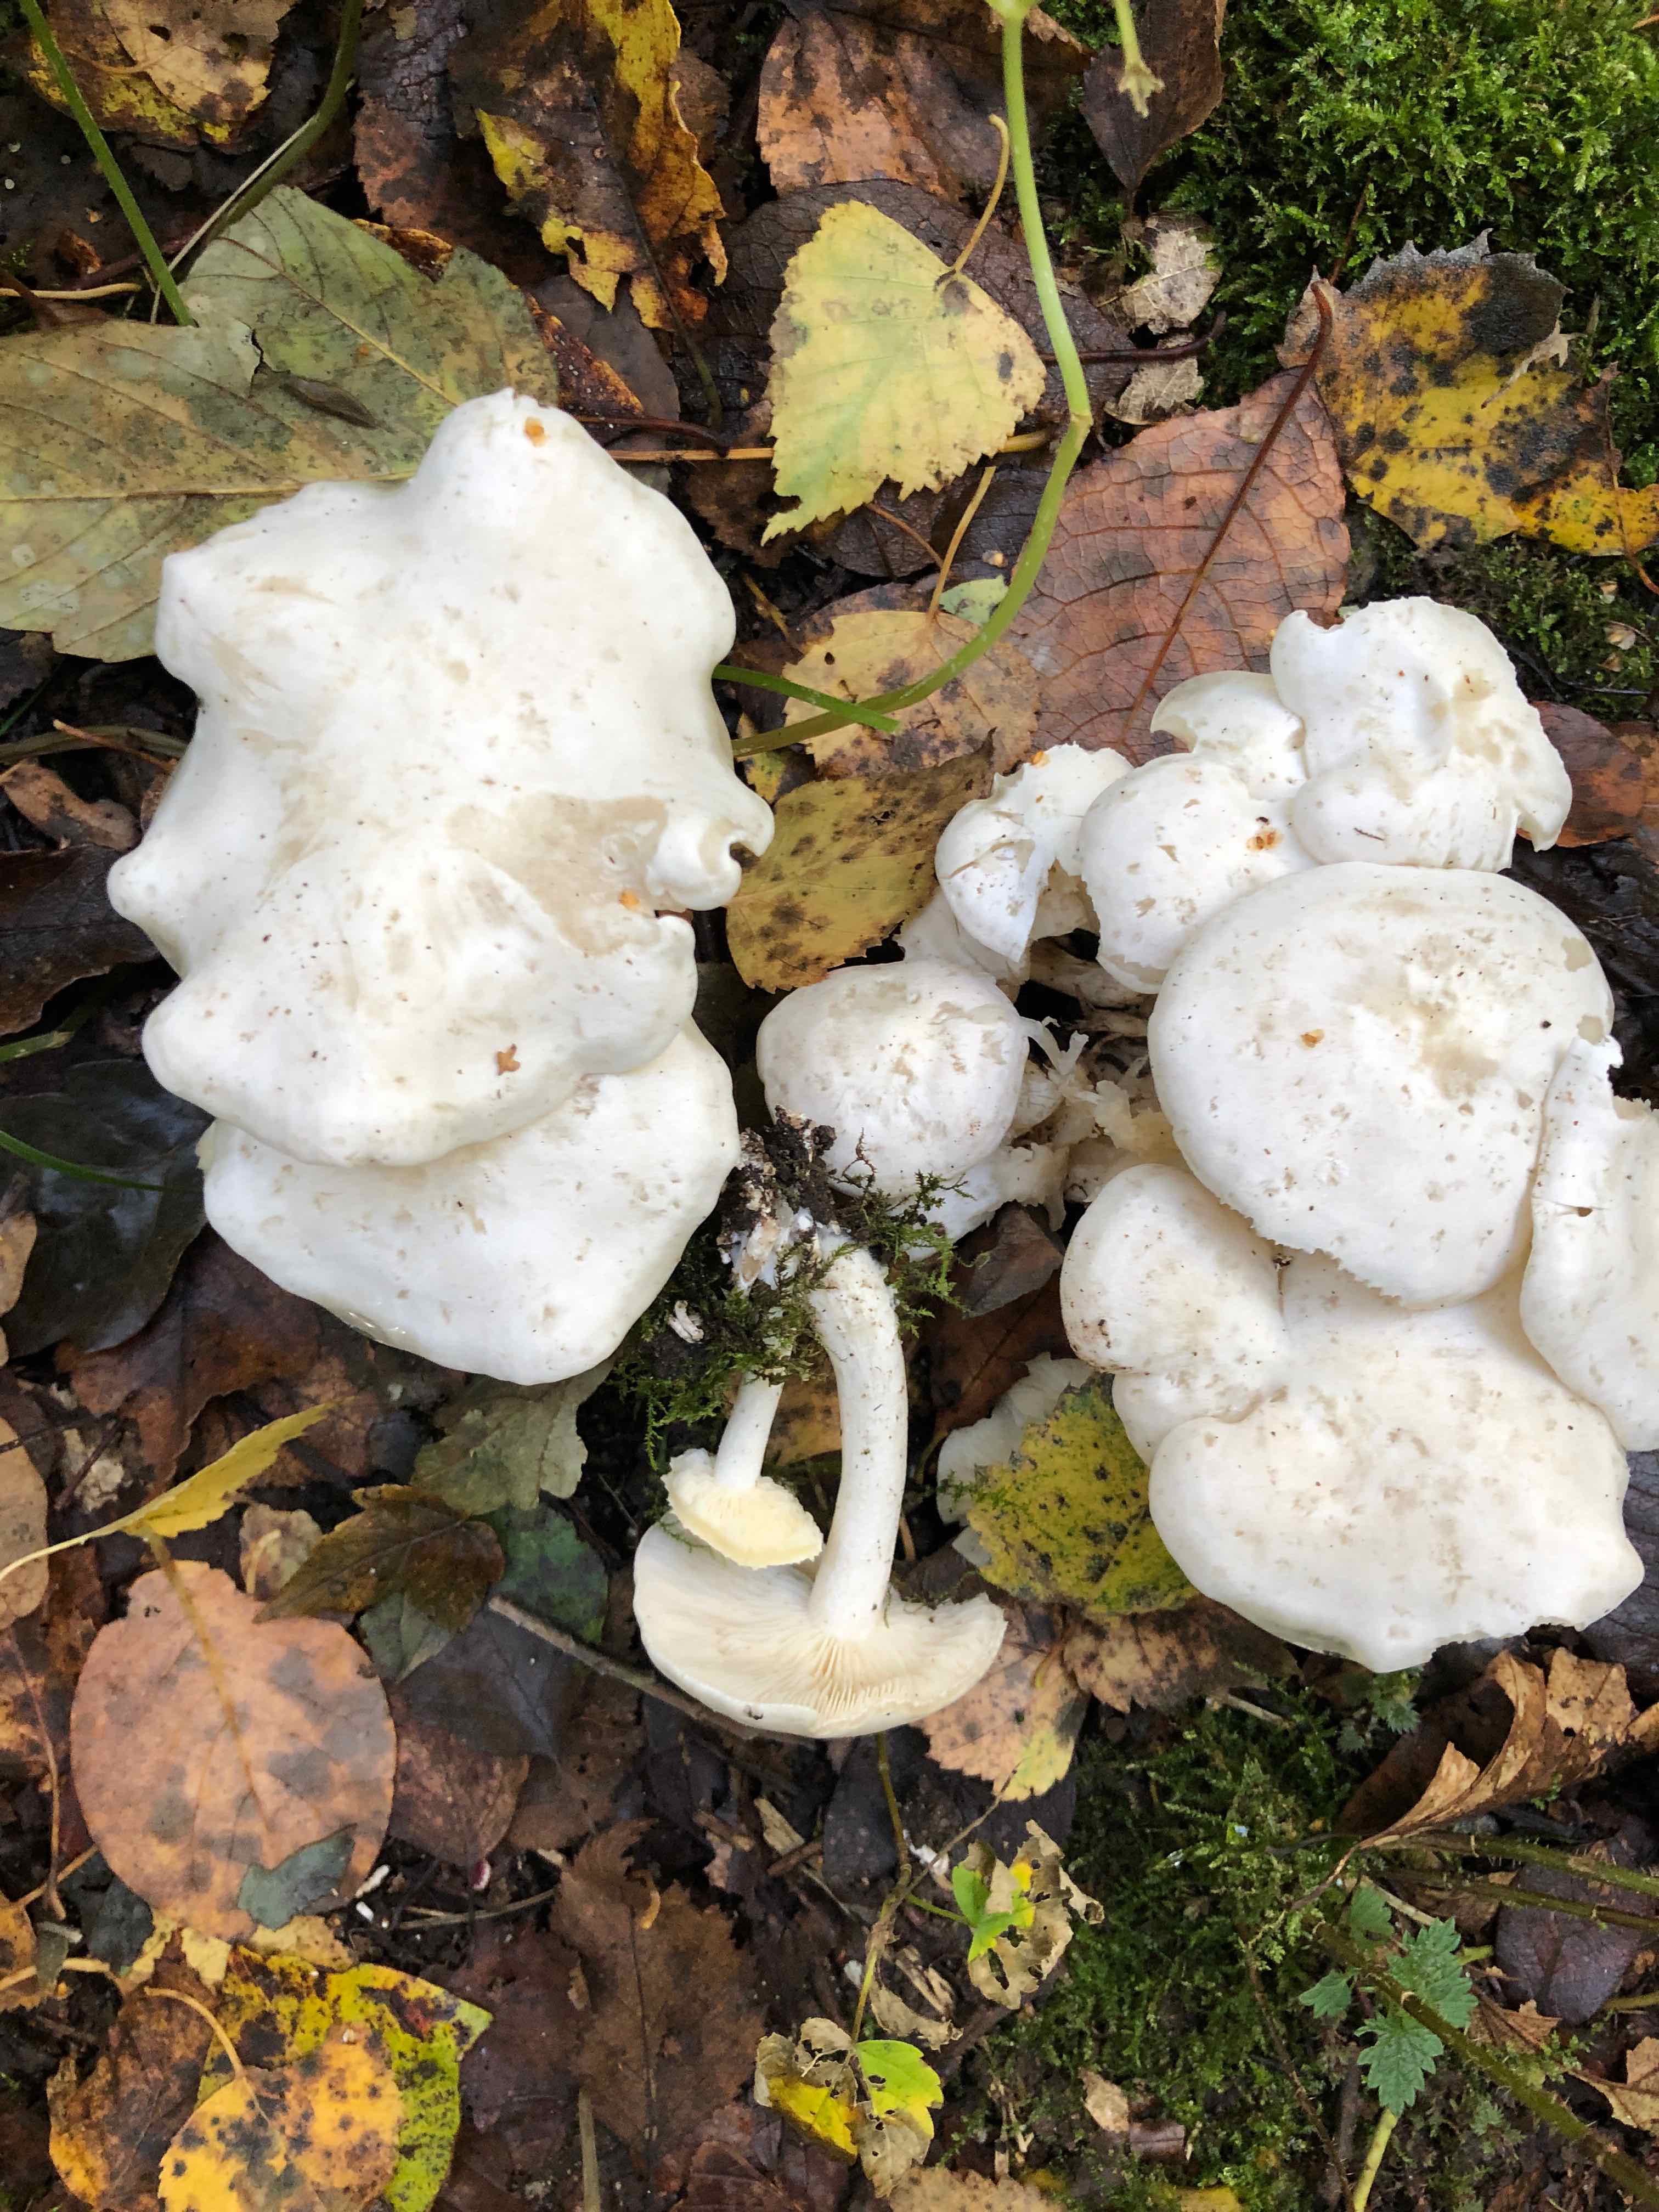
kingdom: Fungi
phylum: Basidiomycota
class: Agaricomycetes
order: Agaricales
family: Tricholomataceae
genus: Leucocybe
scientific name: Leucocybe connata
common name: knippe-tragthat
